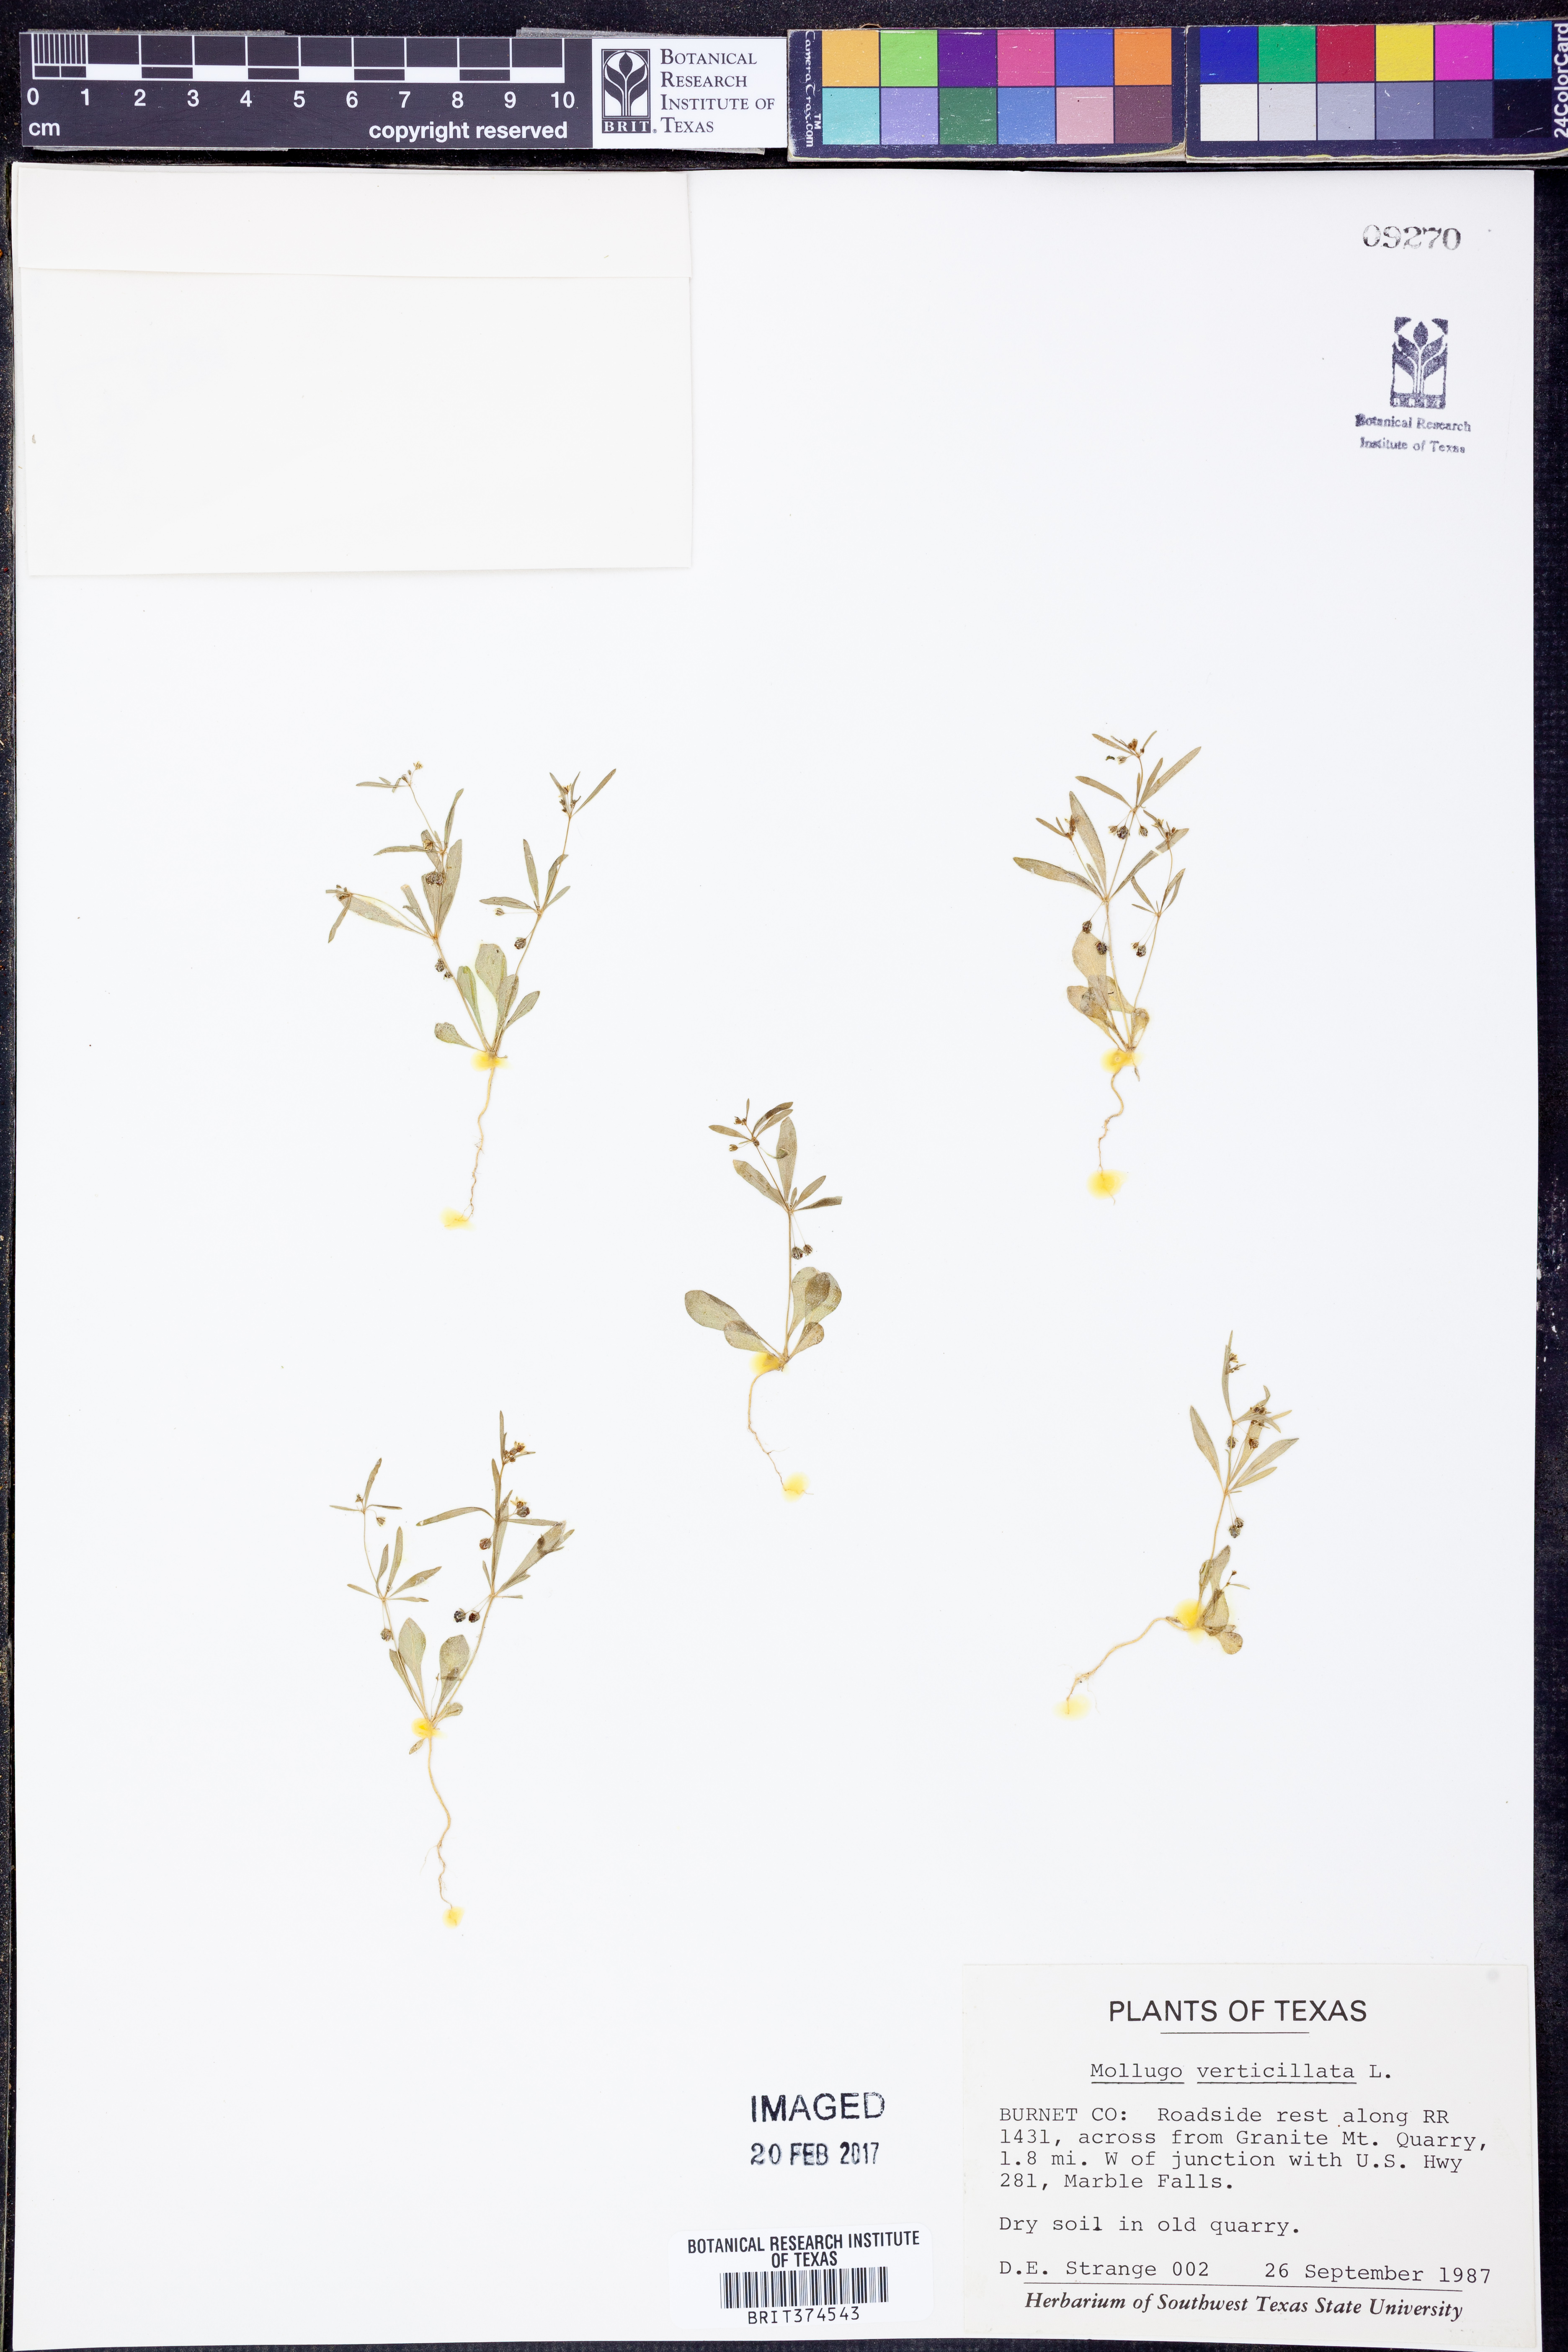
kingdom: Plantae
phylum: Tracheophyta
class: Magnoliopsida
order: Caryophyllales
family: Molluginaceae
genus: Mollugo
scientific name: Mollugo verticillata
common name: Green carpetweed
